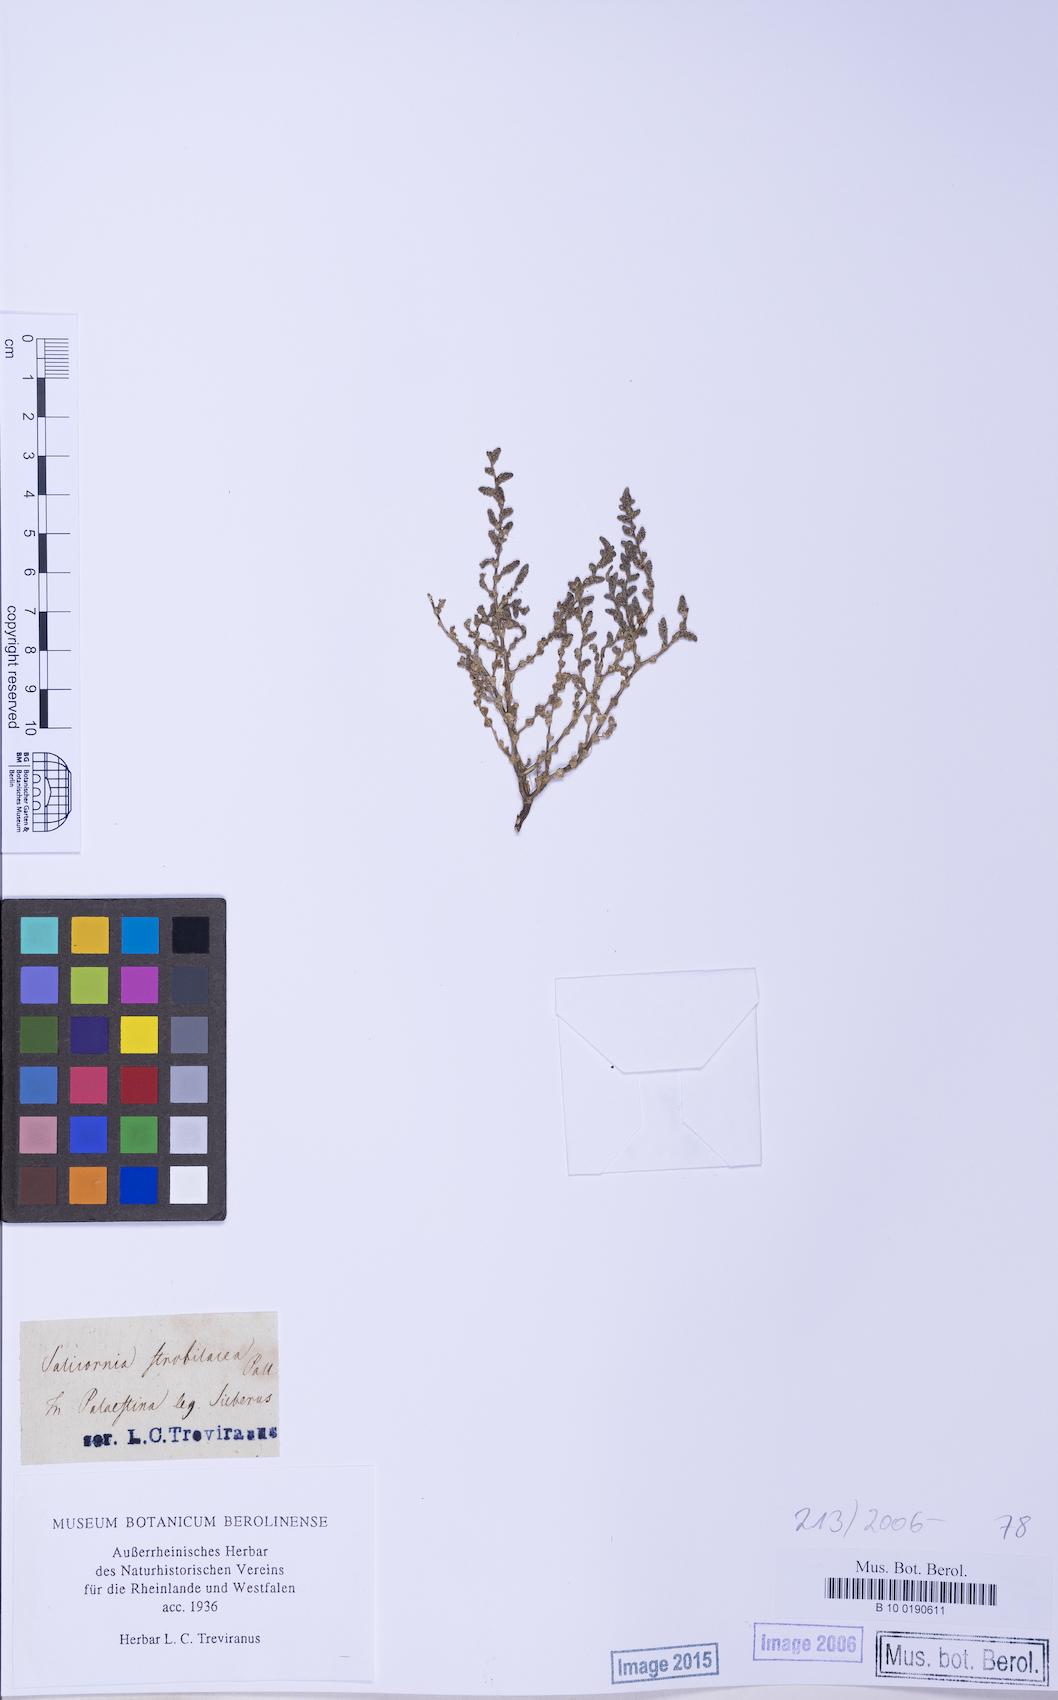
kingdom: Plantae
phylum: Tracheophyta
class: Magnoliopsida
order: Caryophyllales
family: Amaranthaceae
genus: Halocnemum
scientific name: Halocnemum strobilaceum
